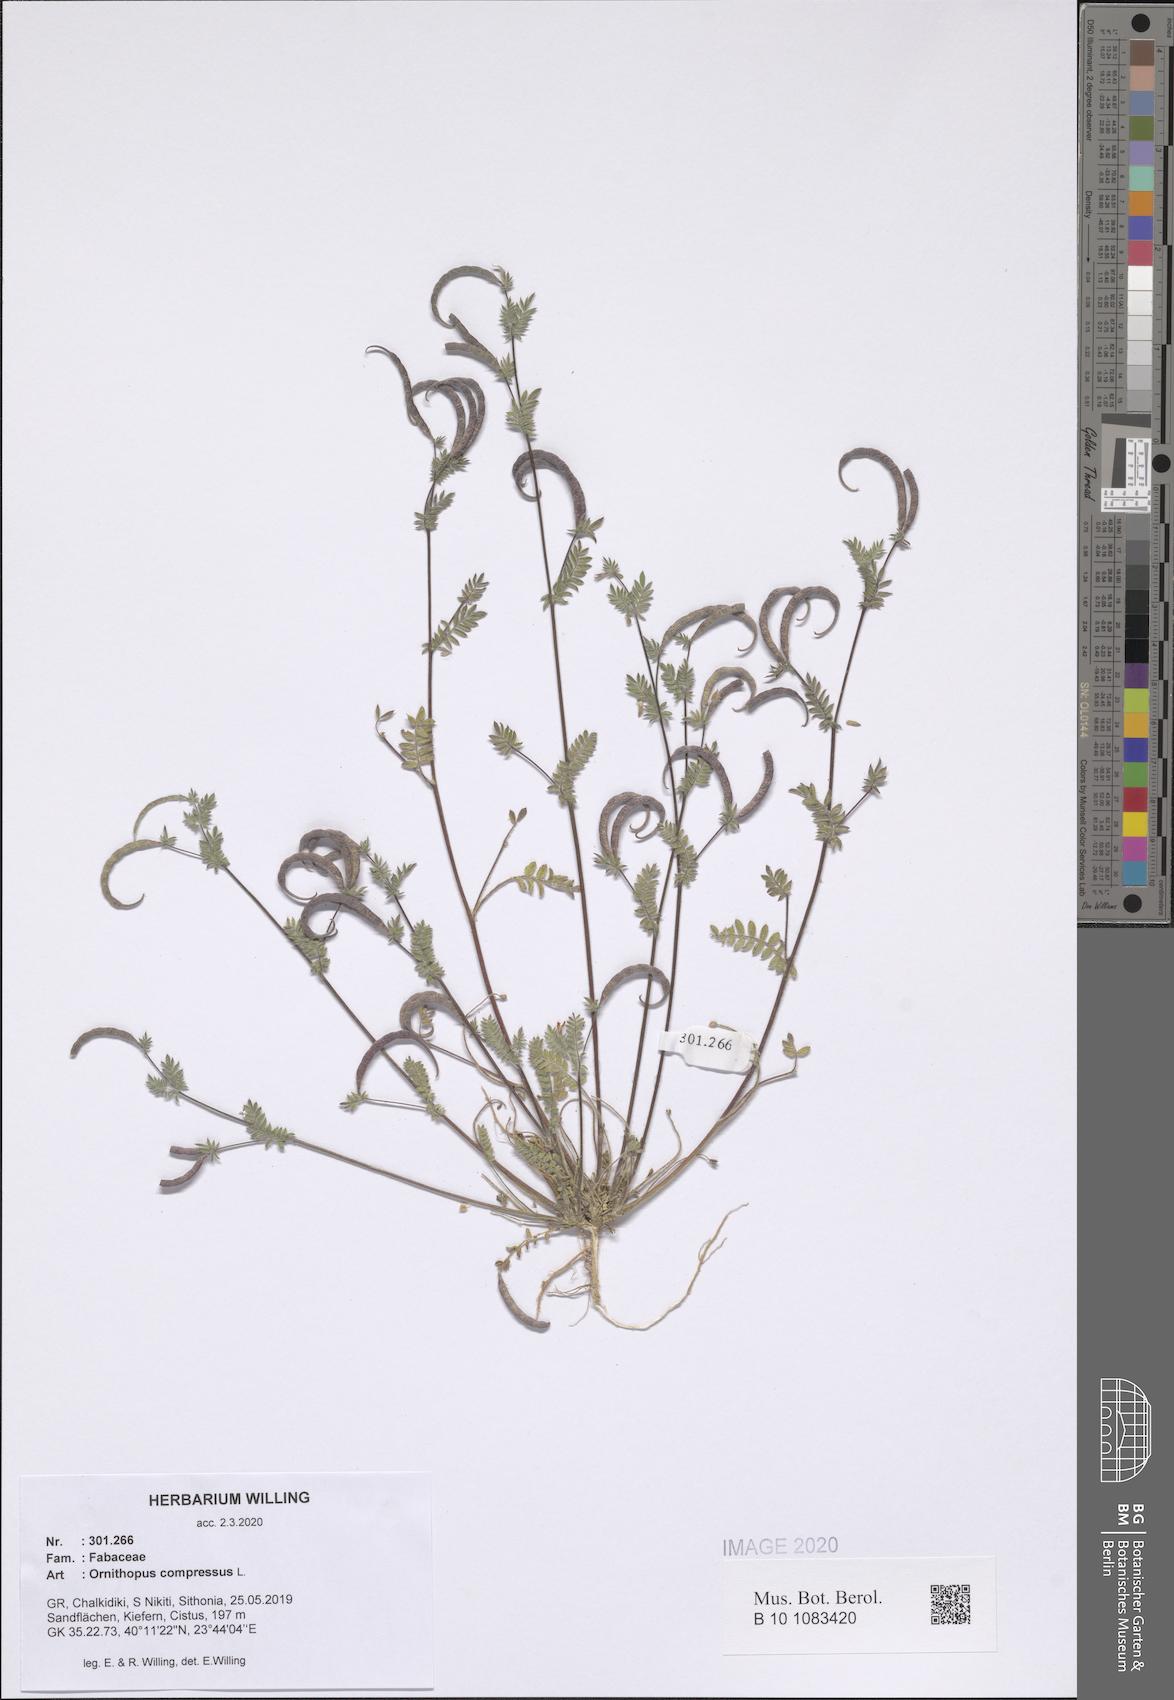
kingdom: Plantae
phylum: Tracheophyta
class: Magnoliopsida
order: Fabales
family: Fabaceae
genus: Ornithopus
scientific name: Ornithopus compressus
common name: Yellow serradella
